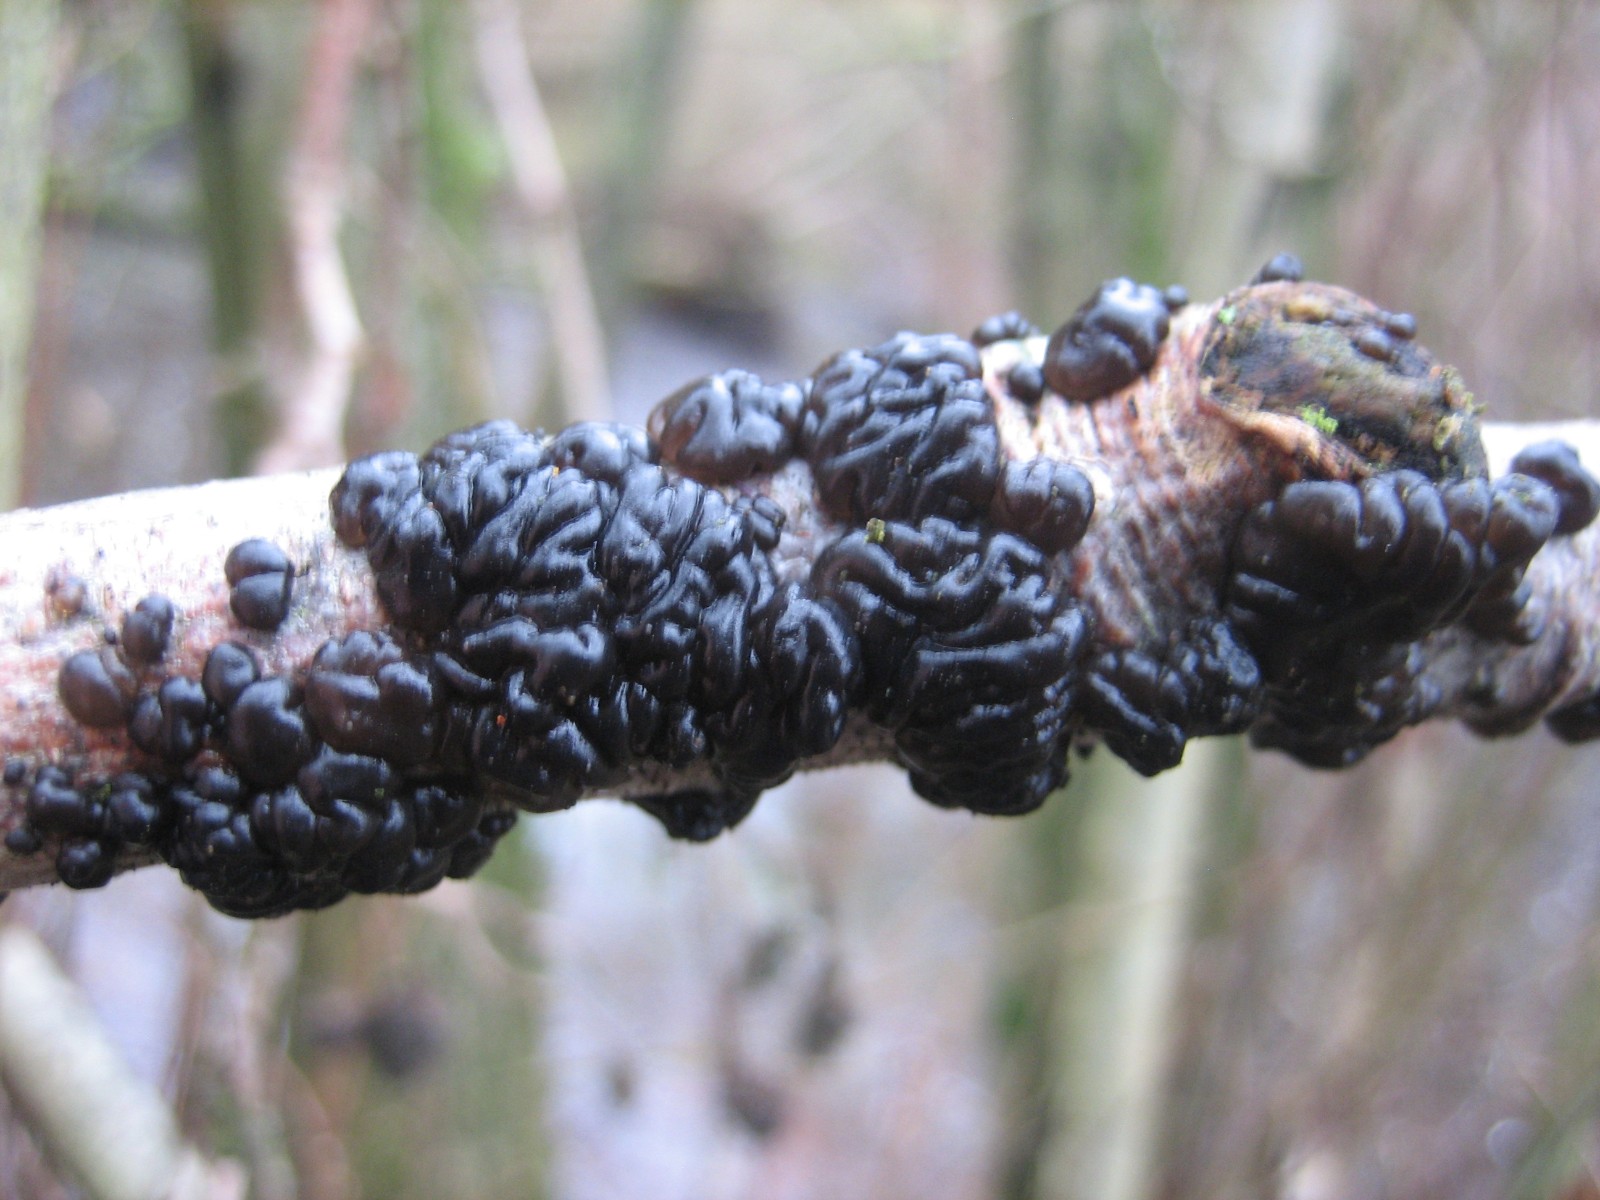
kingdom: Fungi
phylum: Basidiomycota
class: Agaricomycetes
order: Auriculariales
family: Auriculariaceae
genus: Exidia
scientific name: Exidia nigricans
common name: almindelig bævretop
